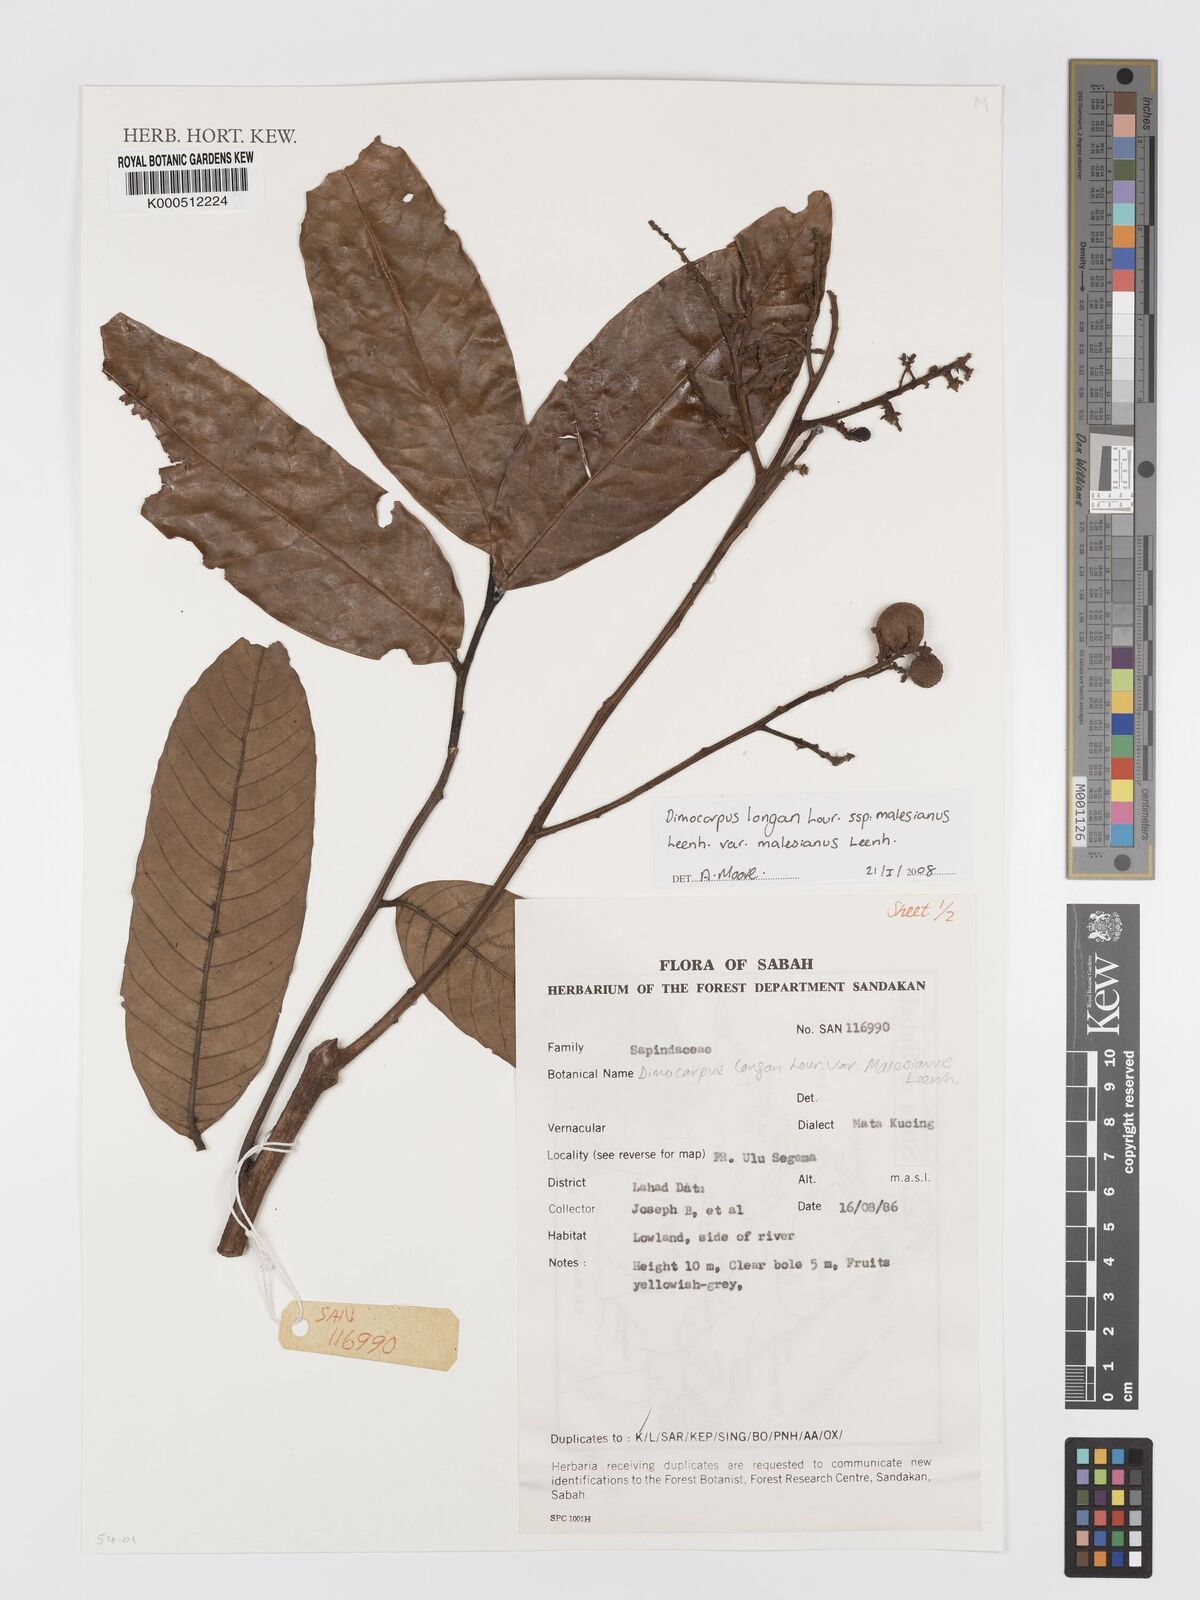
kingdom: Plantae
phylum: Tracheophyta
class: Magnoliopsida
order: Sapindales
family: Sapindaceae
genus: Dimocarpus
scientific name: Dimocarpus malesianus
